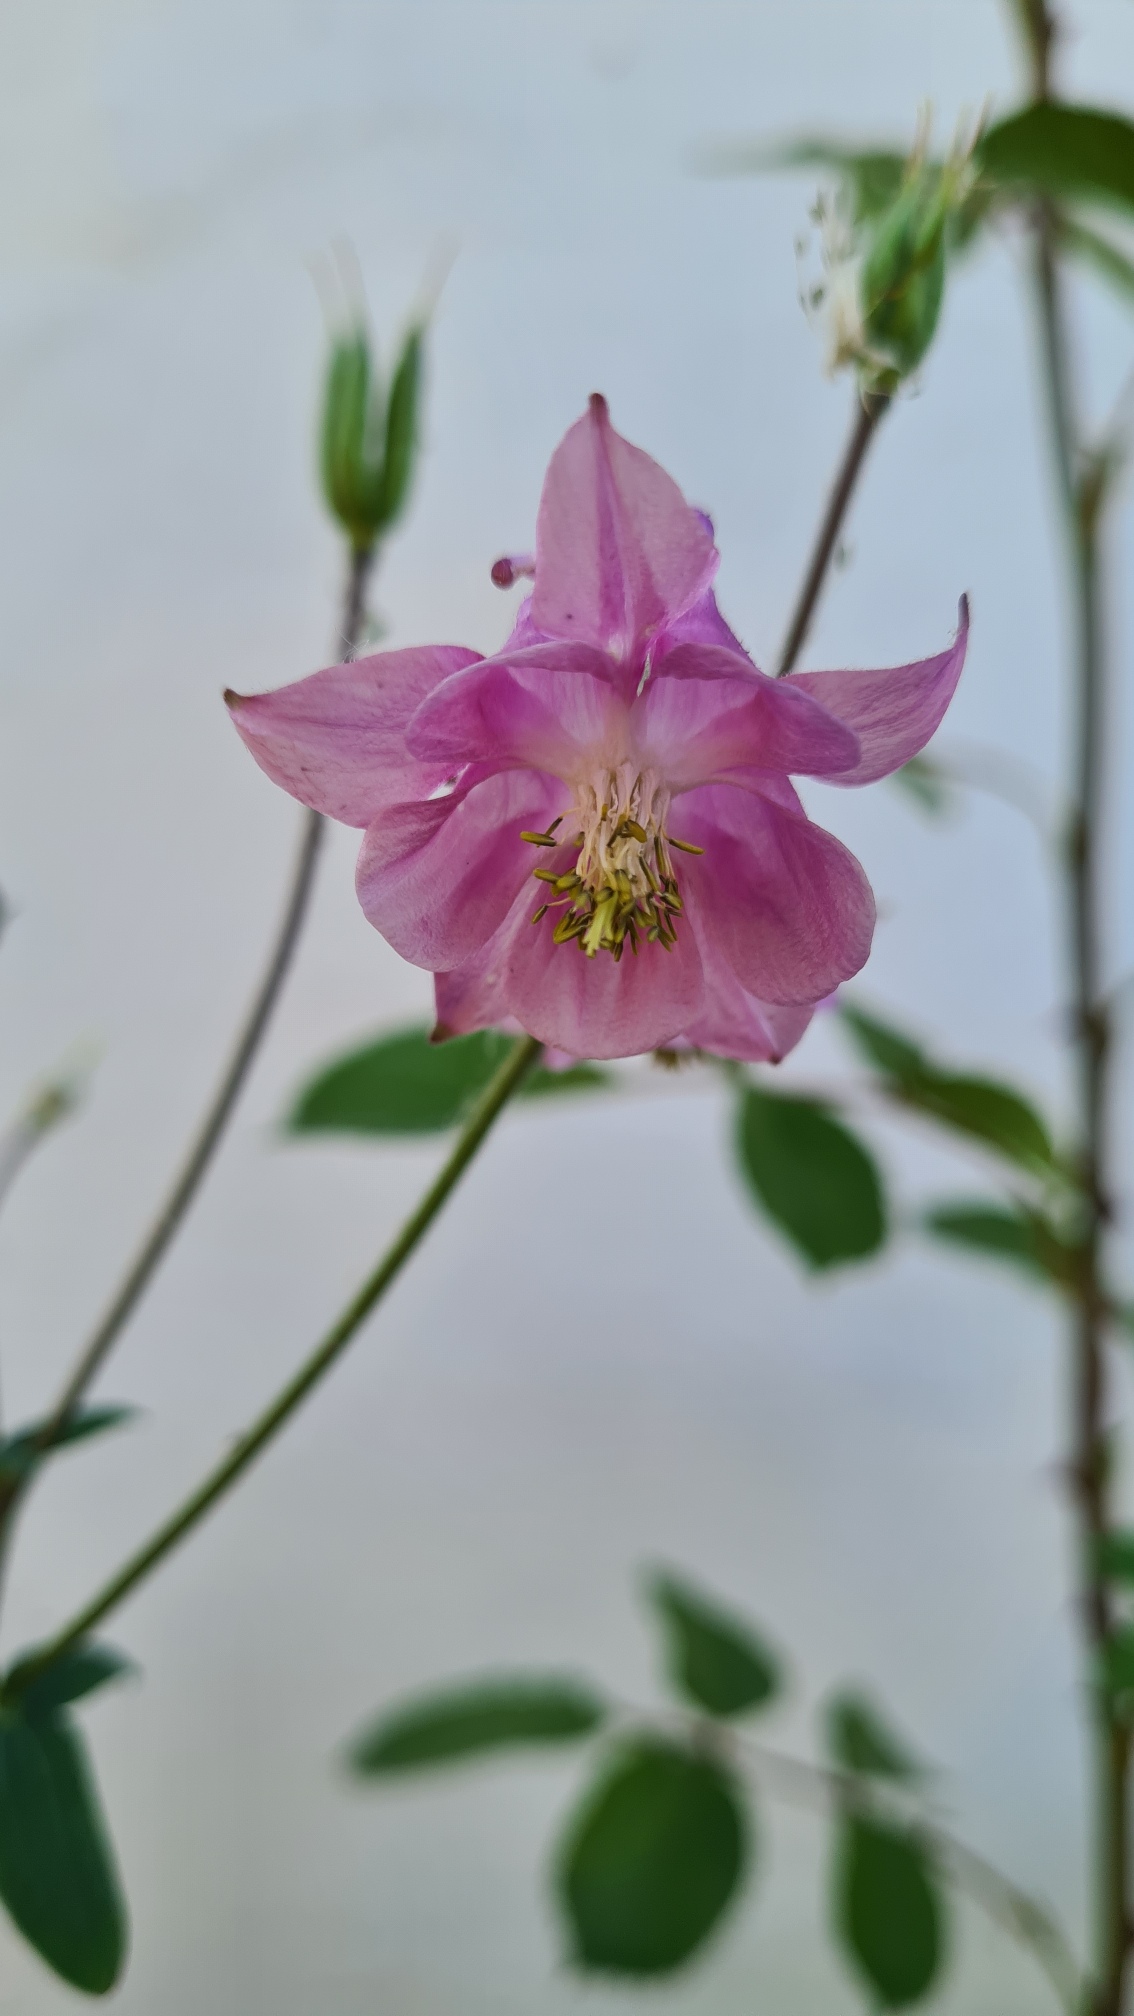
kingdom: Plantae
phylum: Tracheophyta
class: Magnoliopsida
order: Ranunculales
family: Ranunculaceae
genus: Aquilegia
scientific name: Aquilegia vulgaris
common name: Akeleje
